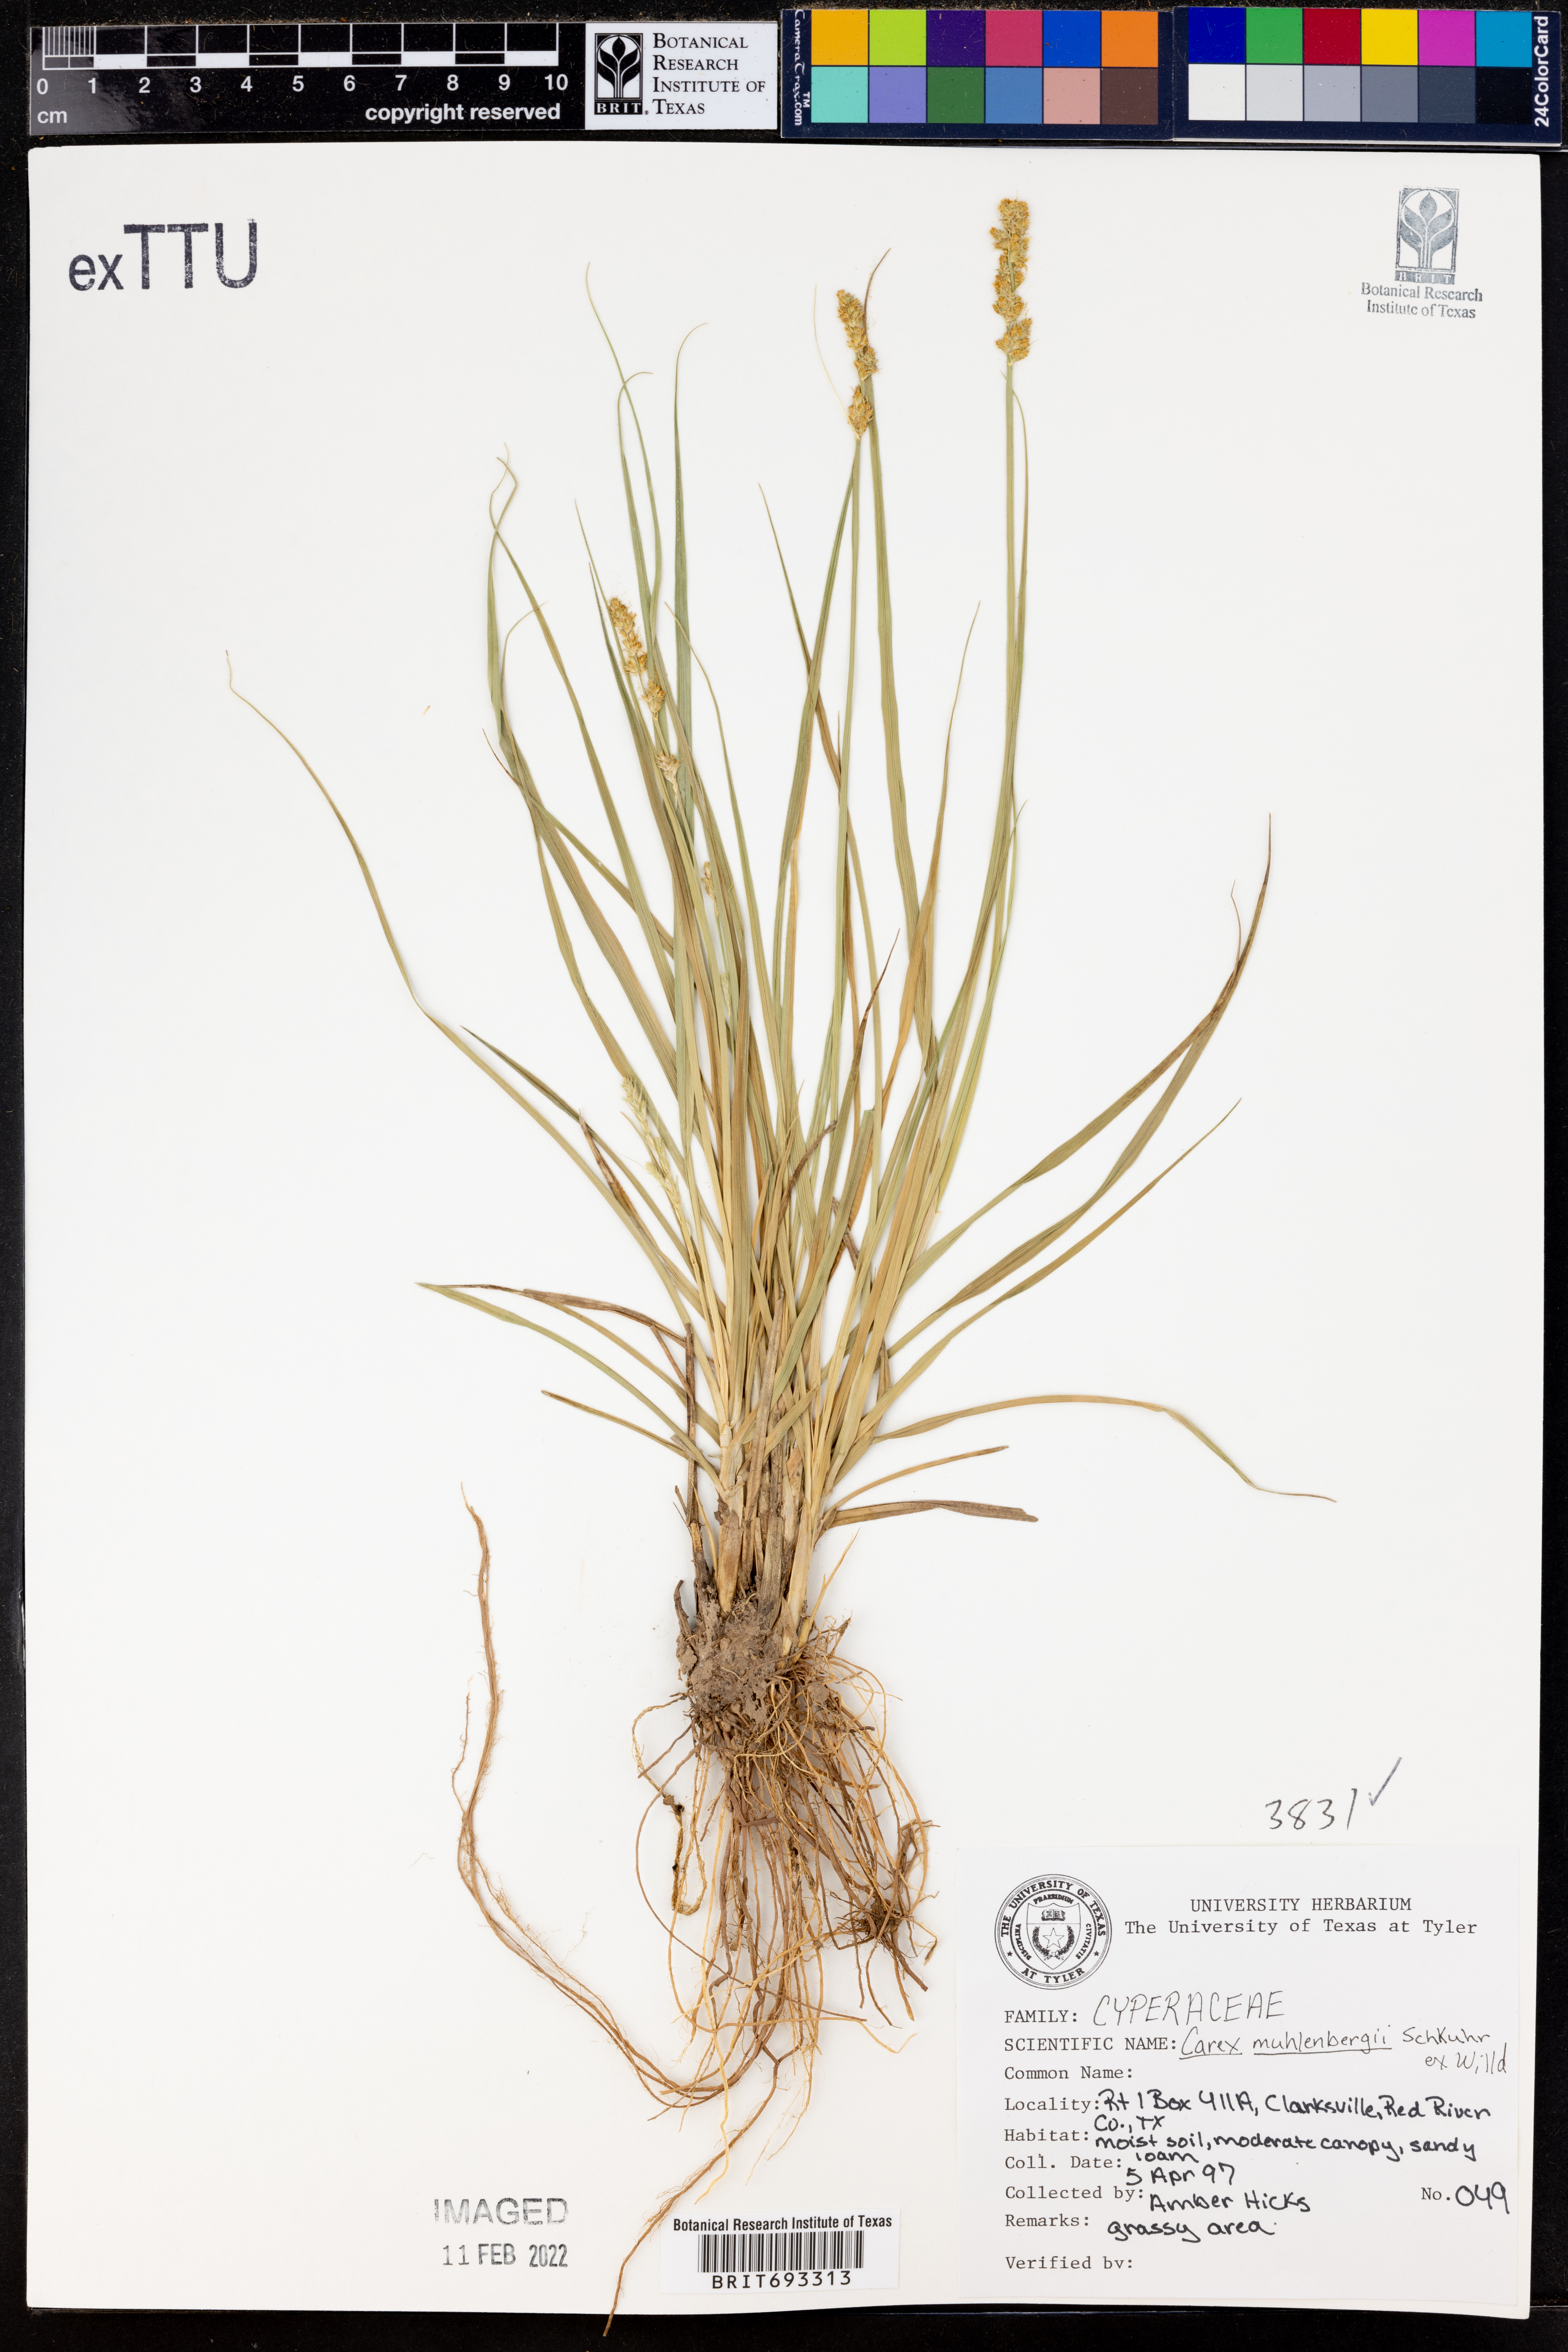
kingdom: Plantae
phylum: Tracheophyta
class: Liliopsida
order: Poales
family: Cyperaceae
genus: Carex
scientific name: Carex vulpinoidea
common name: American fox-sedge
